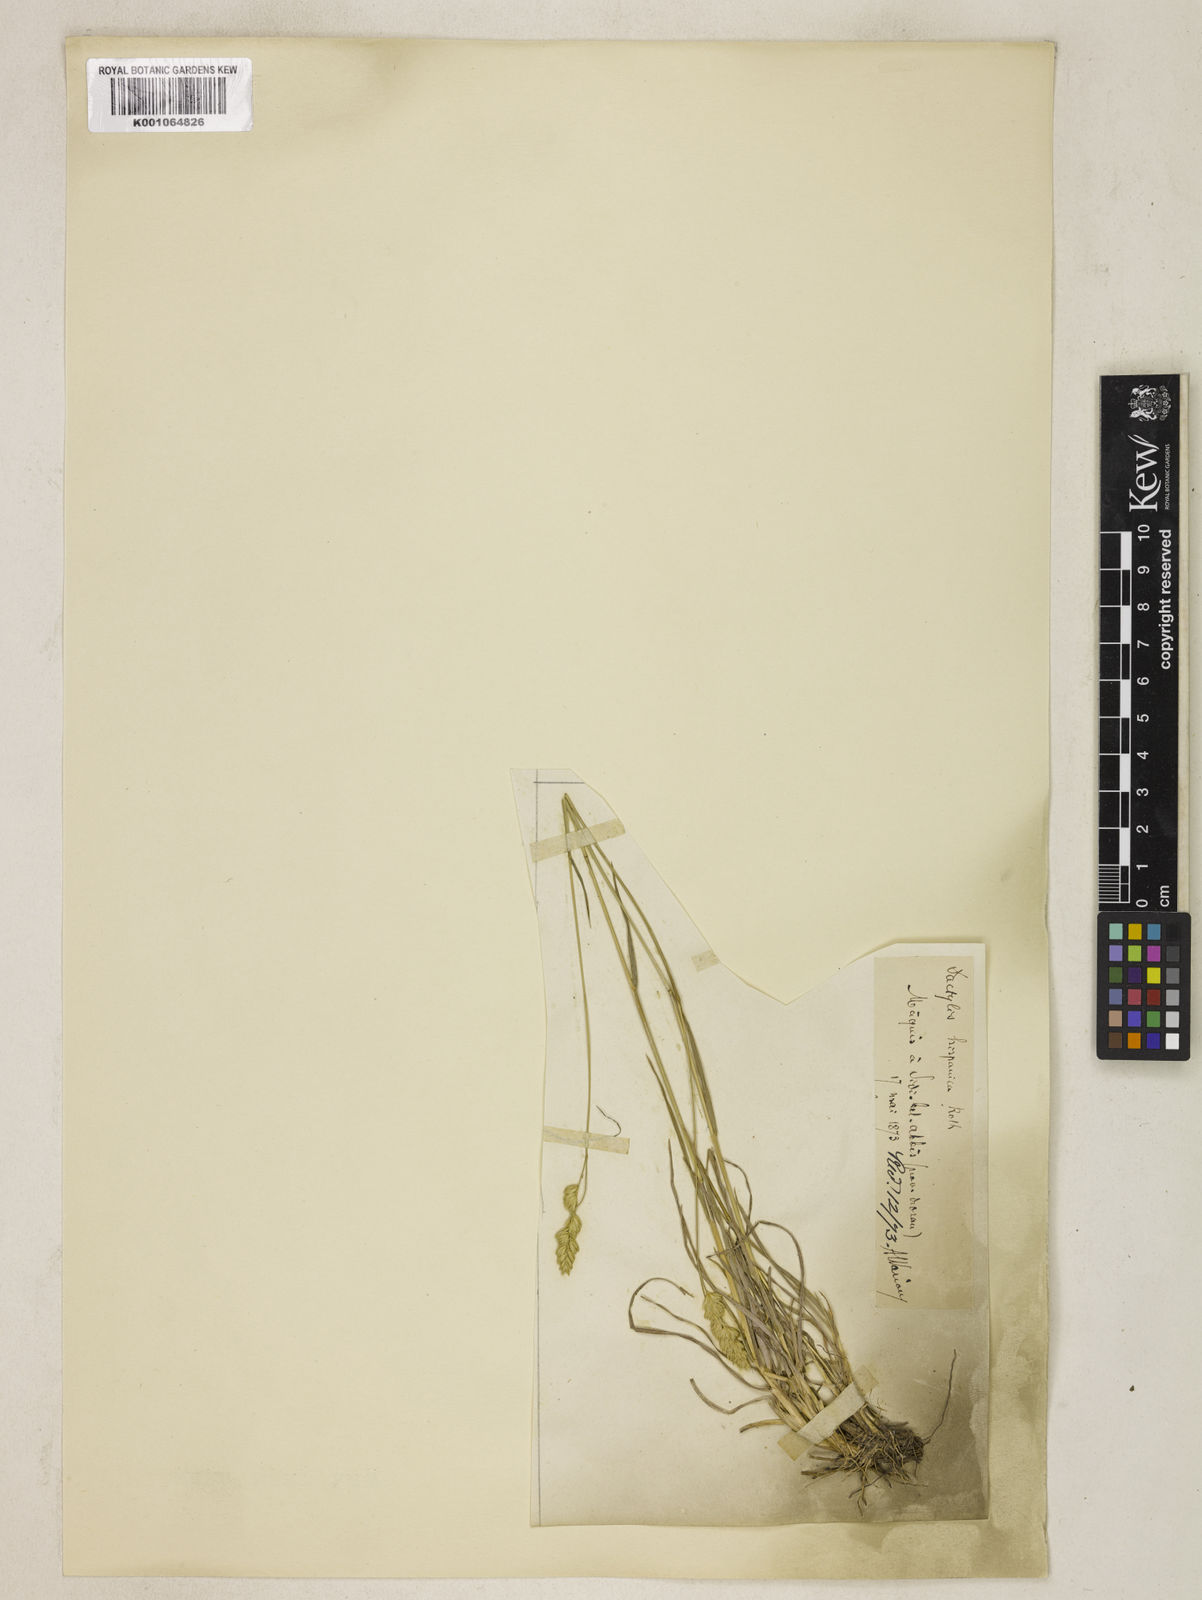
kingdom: Plantae
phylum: Tracheophyta
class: Liliopsida
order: Poales
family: Poaceae
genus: Dactylis
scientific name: Dactylis glomerata
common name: Orchardgrass
